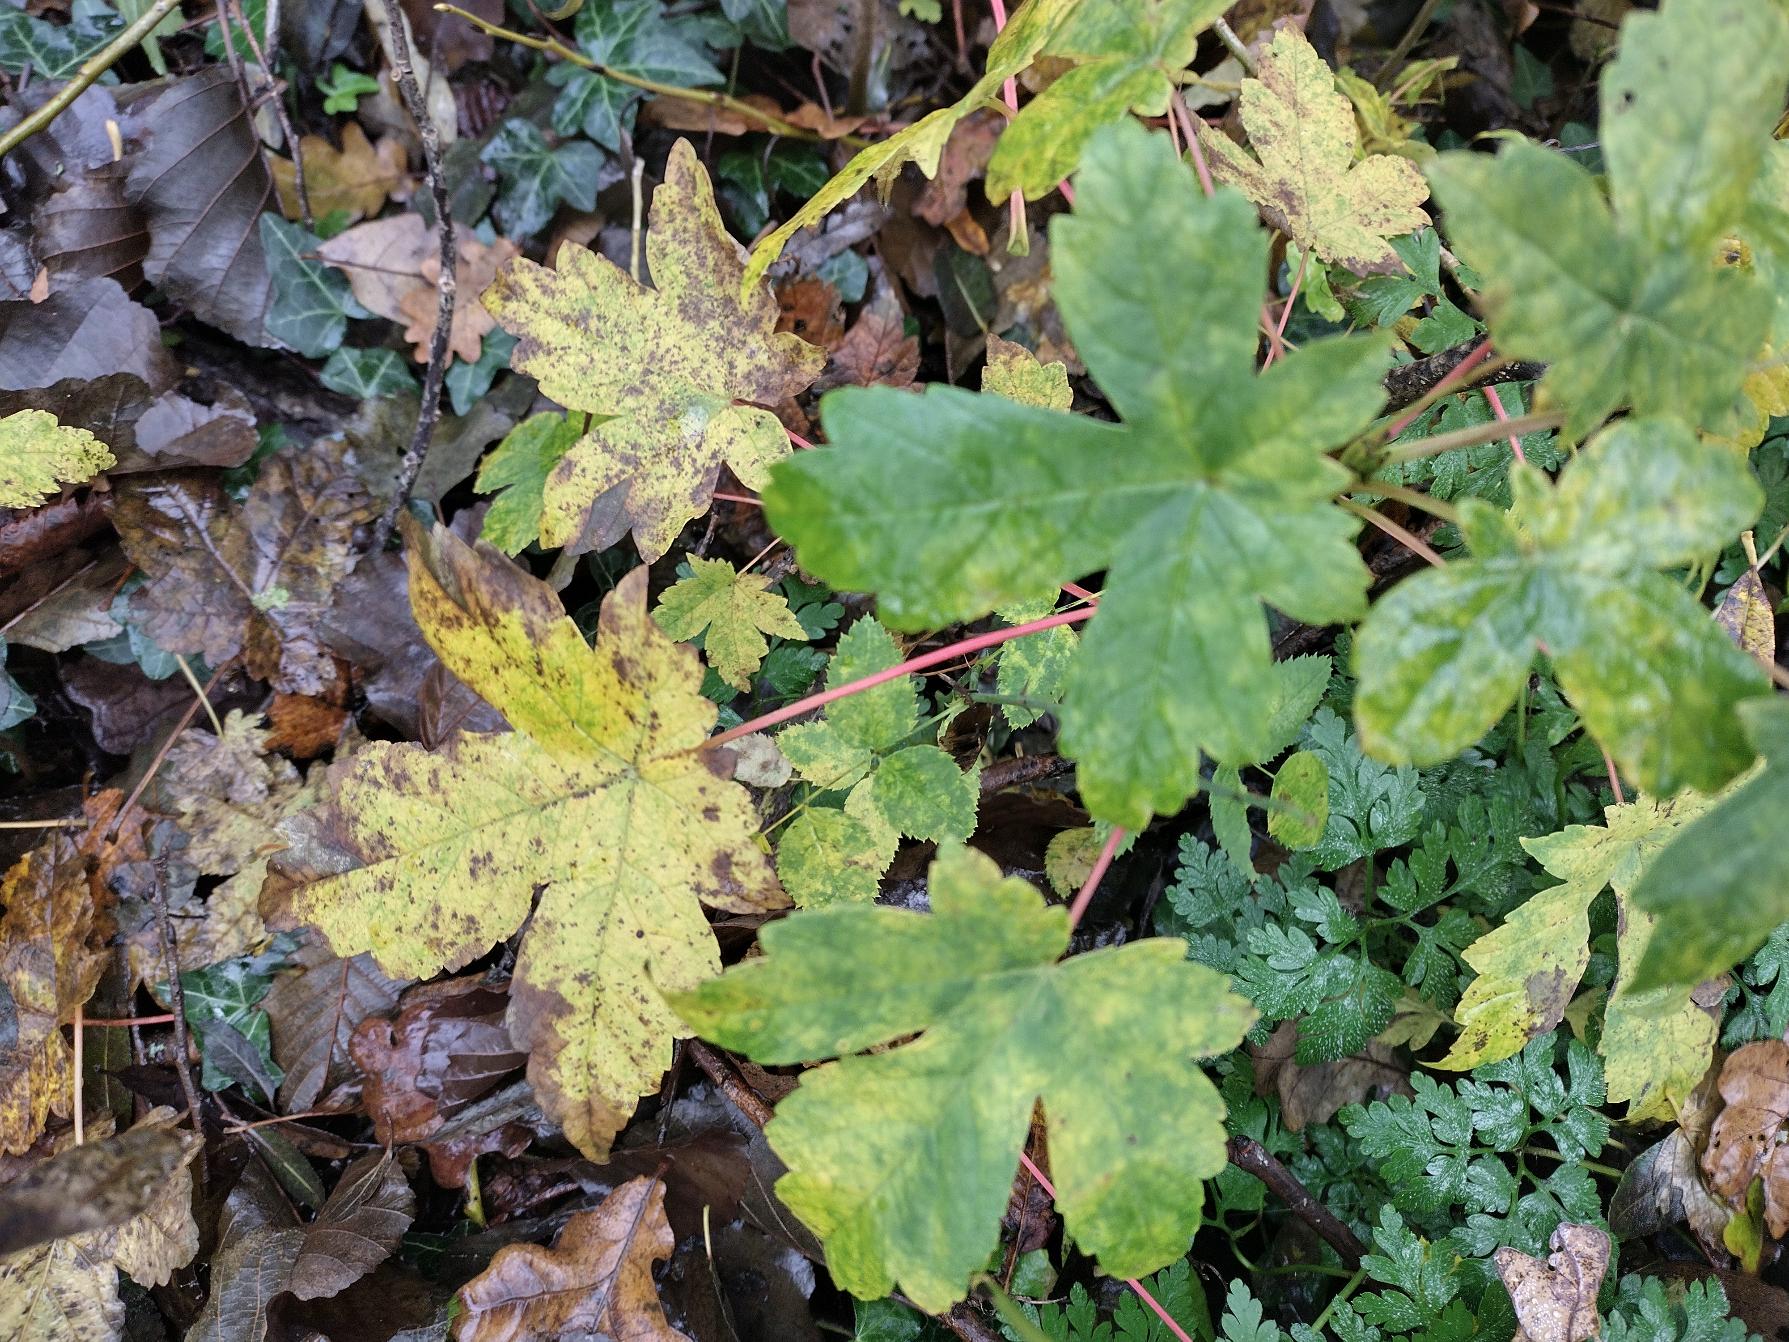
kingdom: Plantae
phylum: Tracheophyta
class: Magnoliopsida
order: Sapindales
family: Sapindaceae
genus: Acer
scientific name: Acer pseudoplatanus
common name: Ahorn
